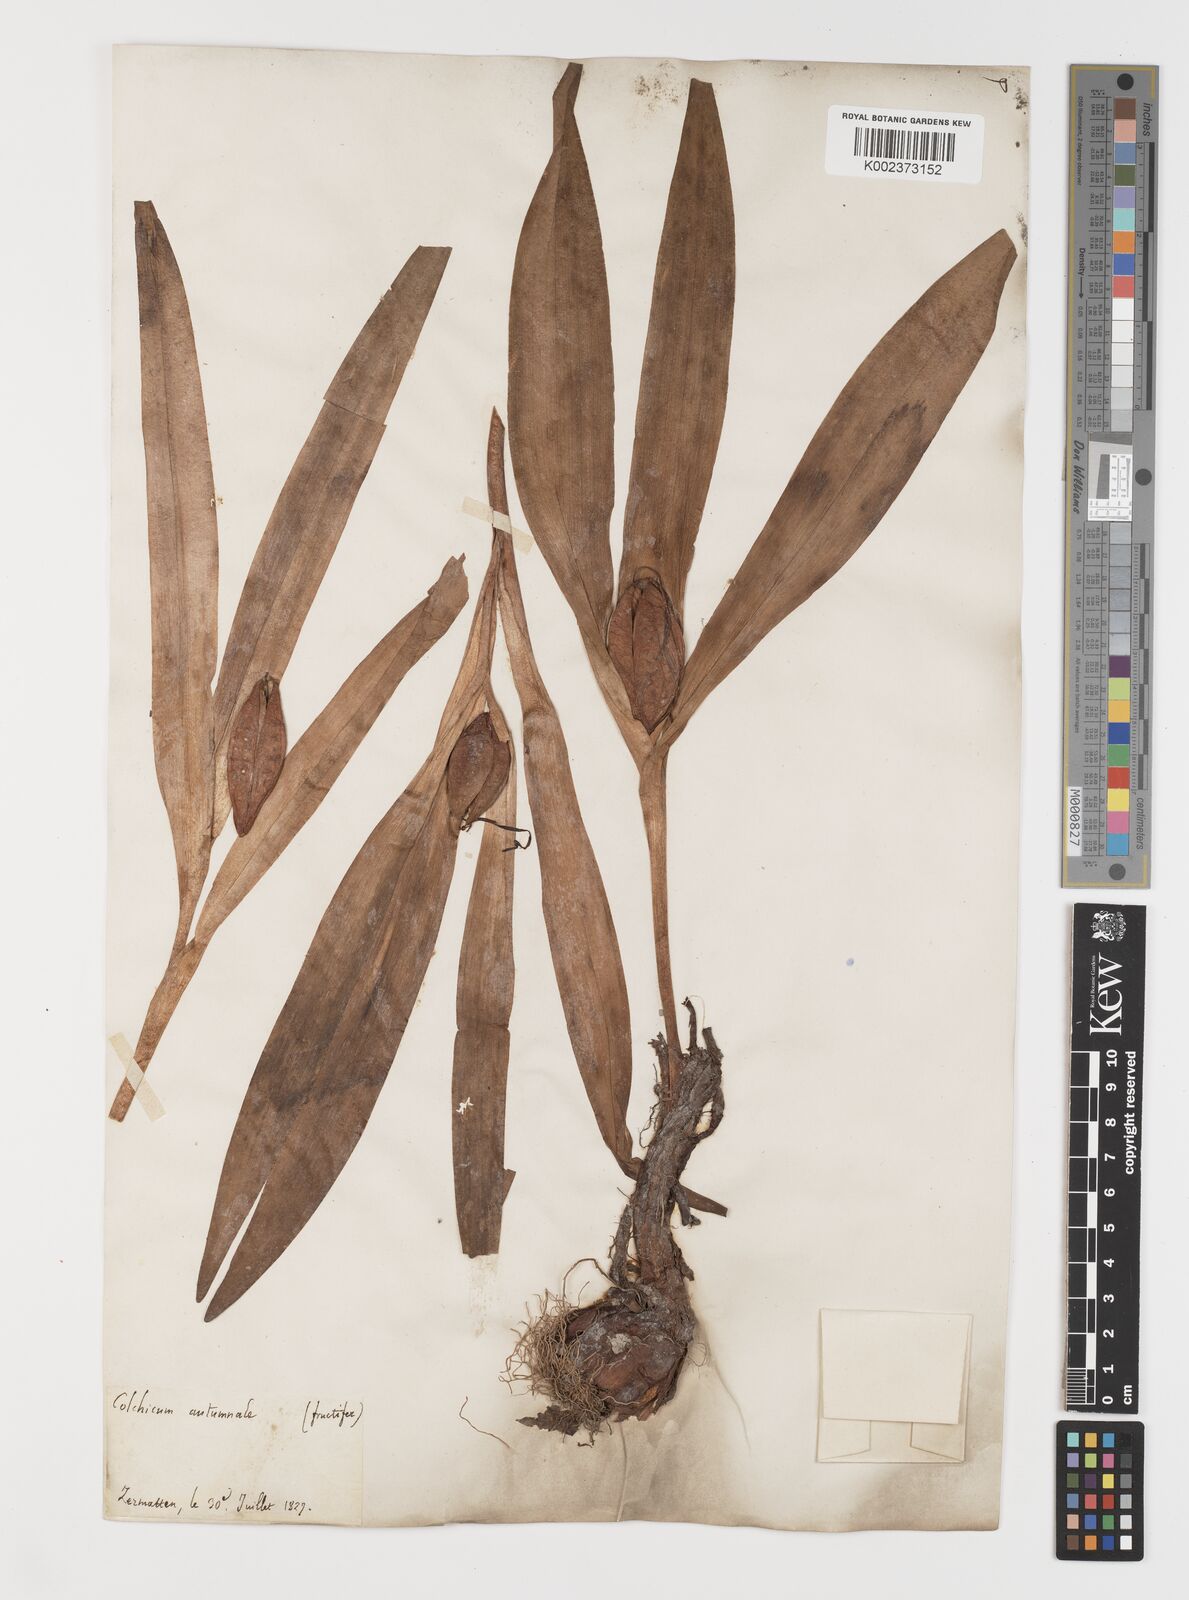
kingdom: Plantae
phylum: Tracheophyta
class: Liliopsida
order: Liliales
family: Colchicaceae
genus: Colchicum
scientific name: Colchicum autumnale
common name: Autumn crocus
